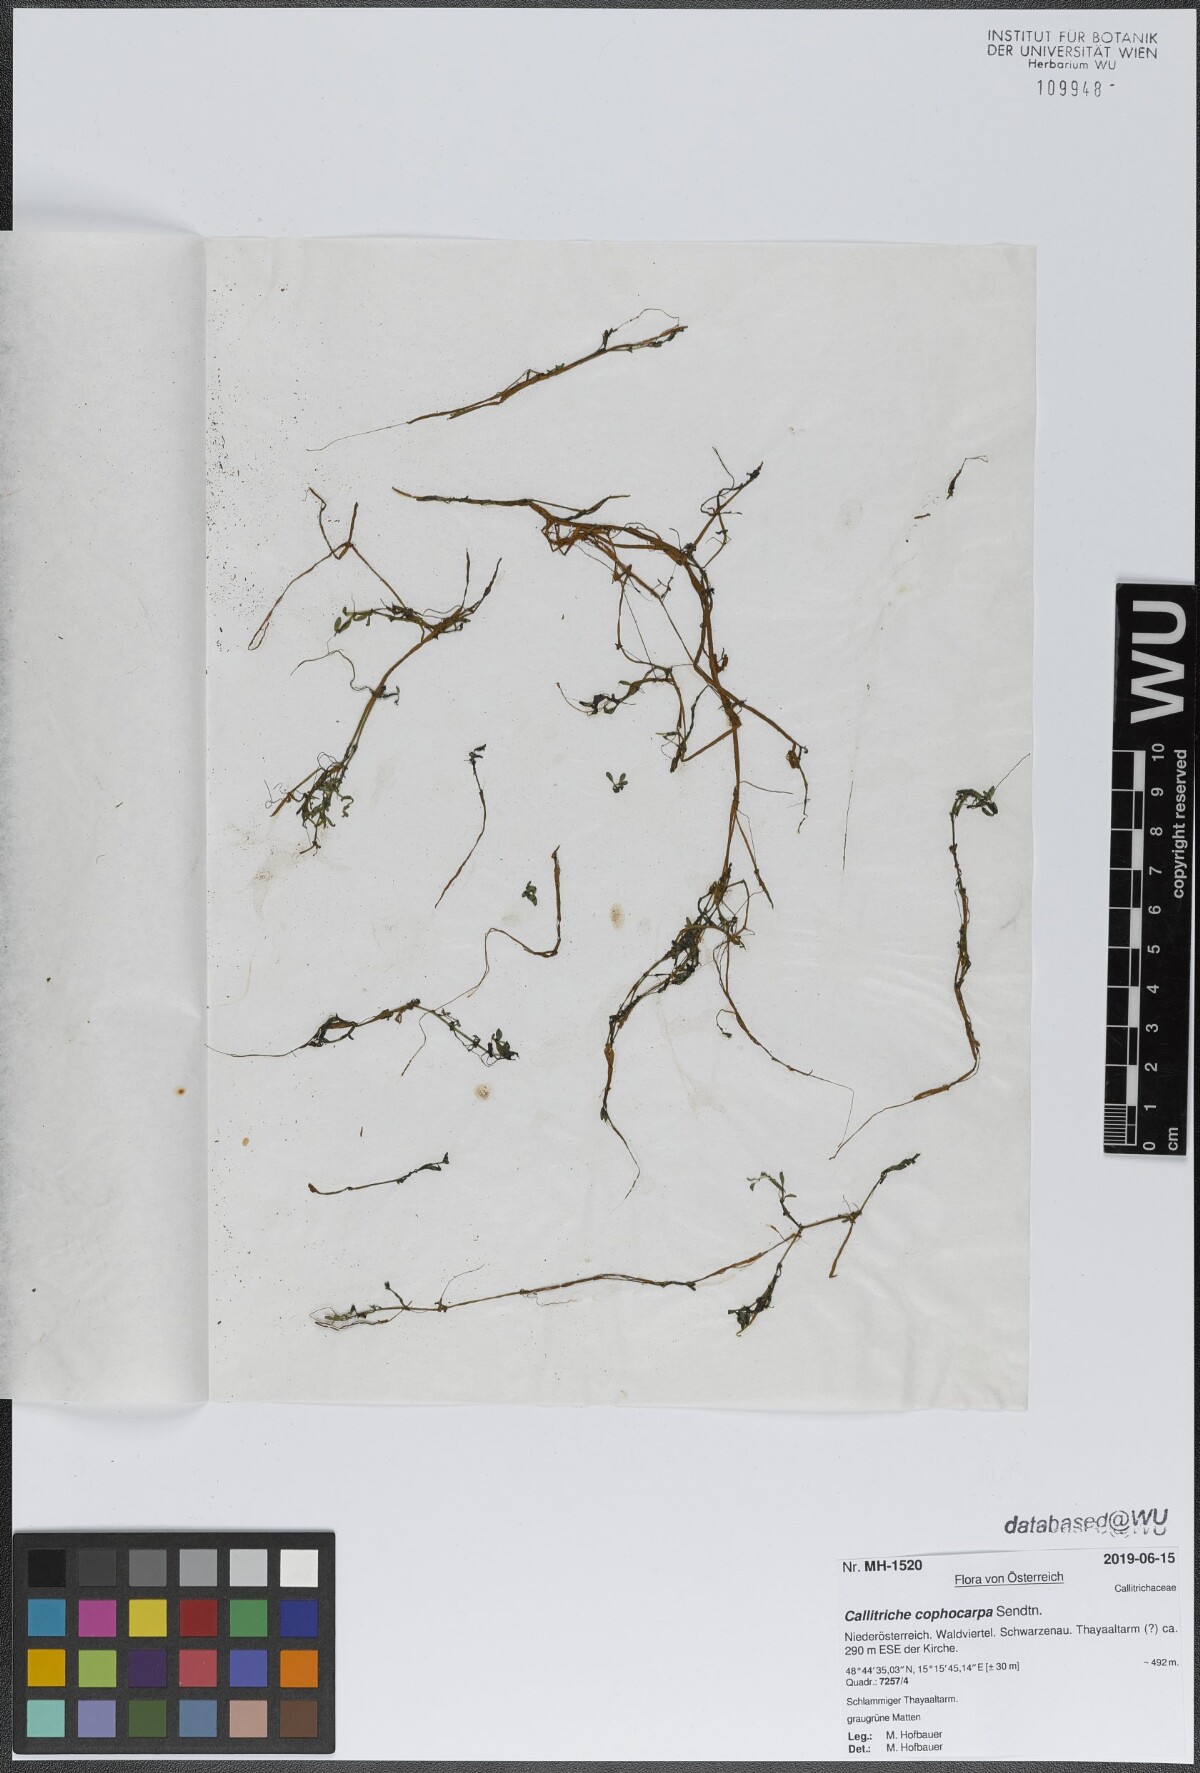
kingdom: Plantae
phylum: Tracheophyta
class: Magnoliopsida
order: Lamiales
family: Plantaginaceae
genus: Callitriche
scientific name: Callitriche cophocarpa
